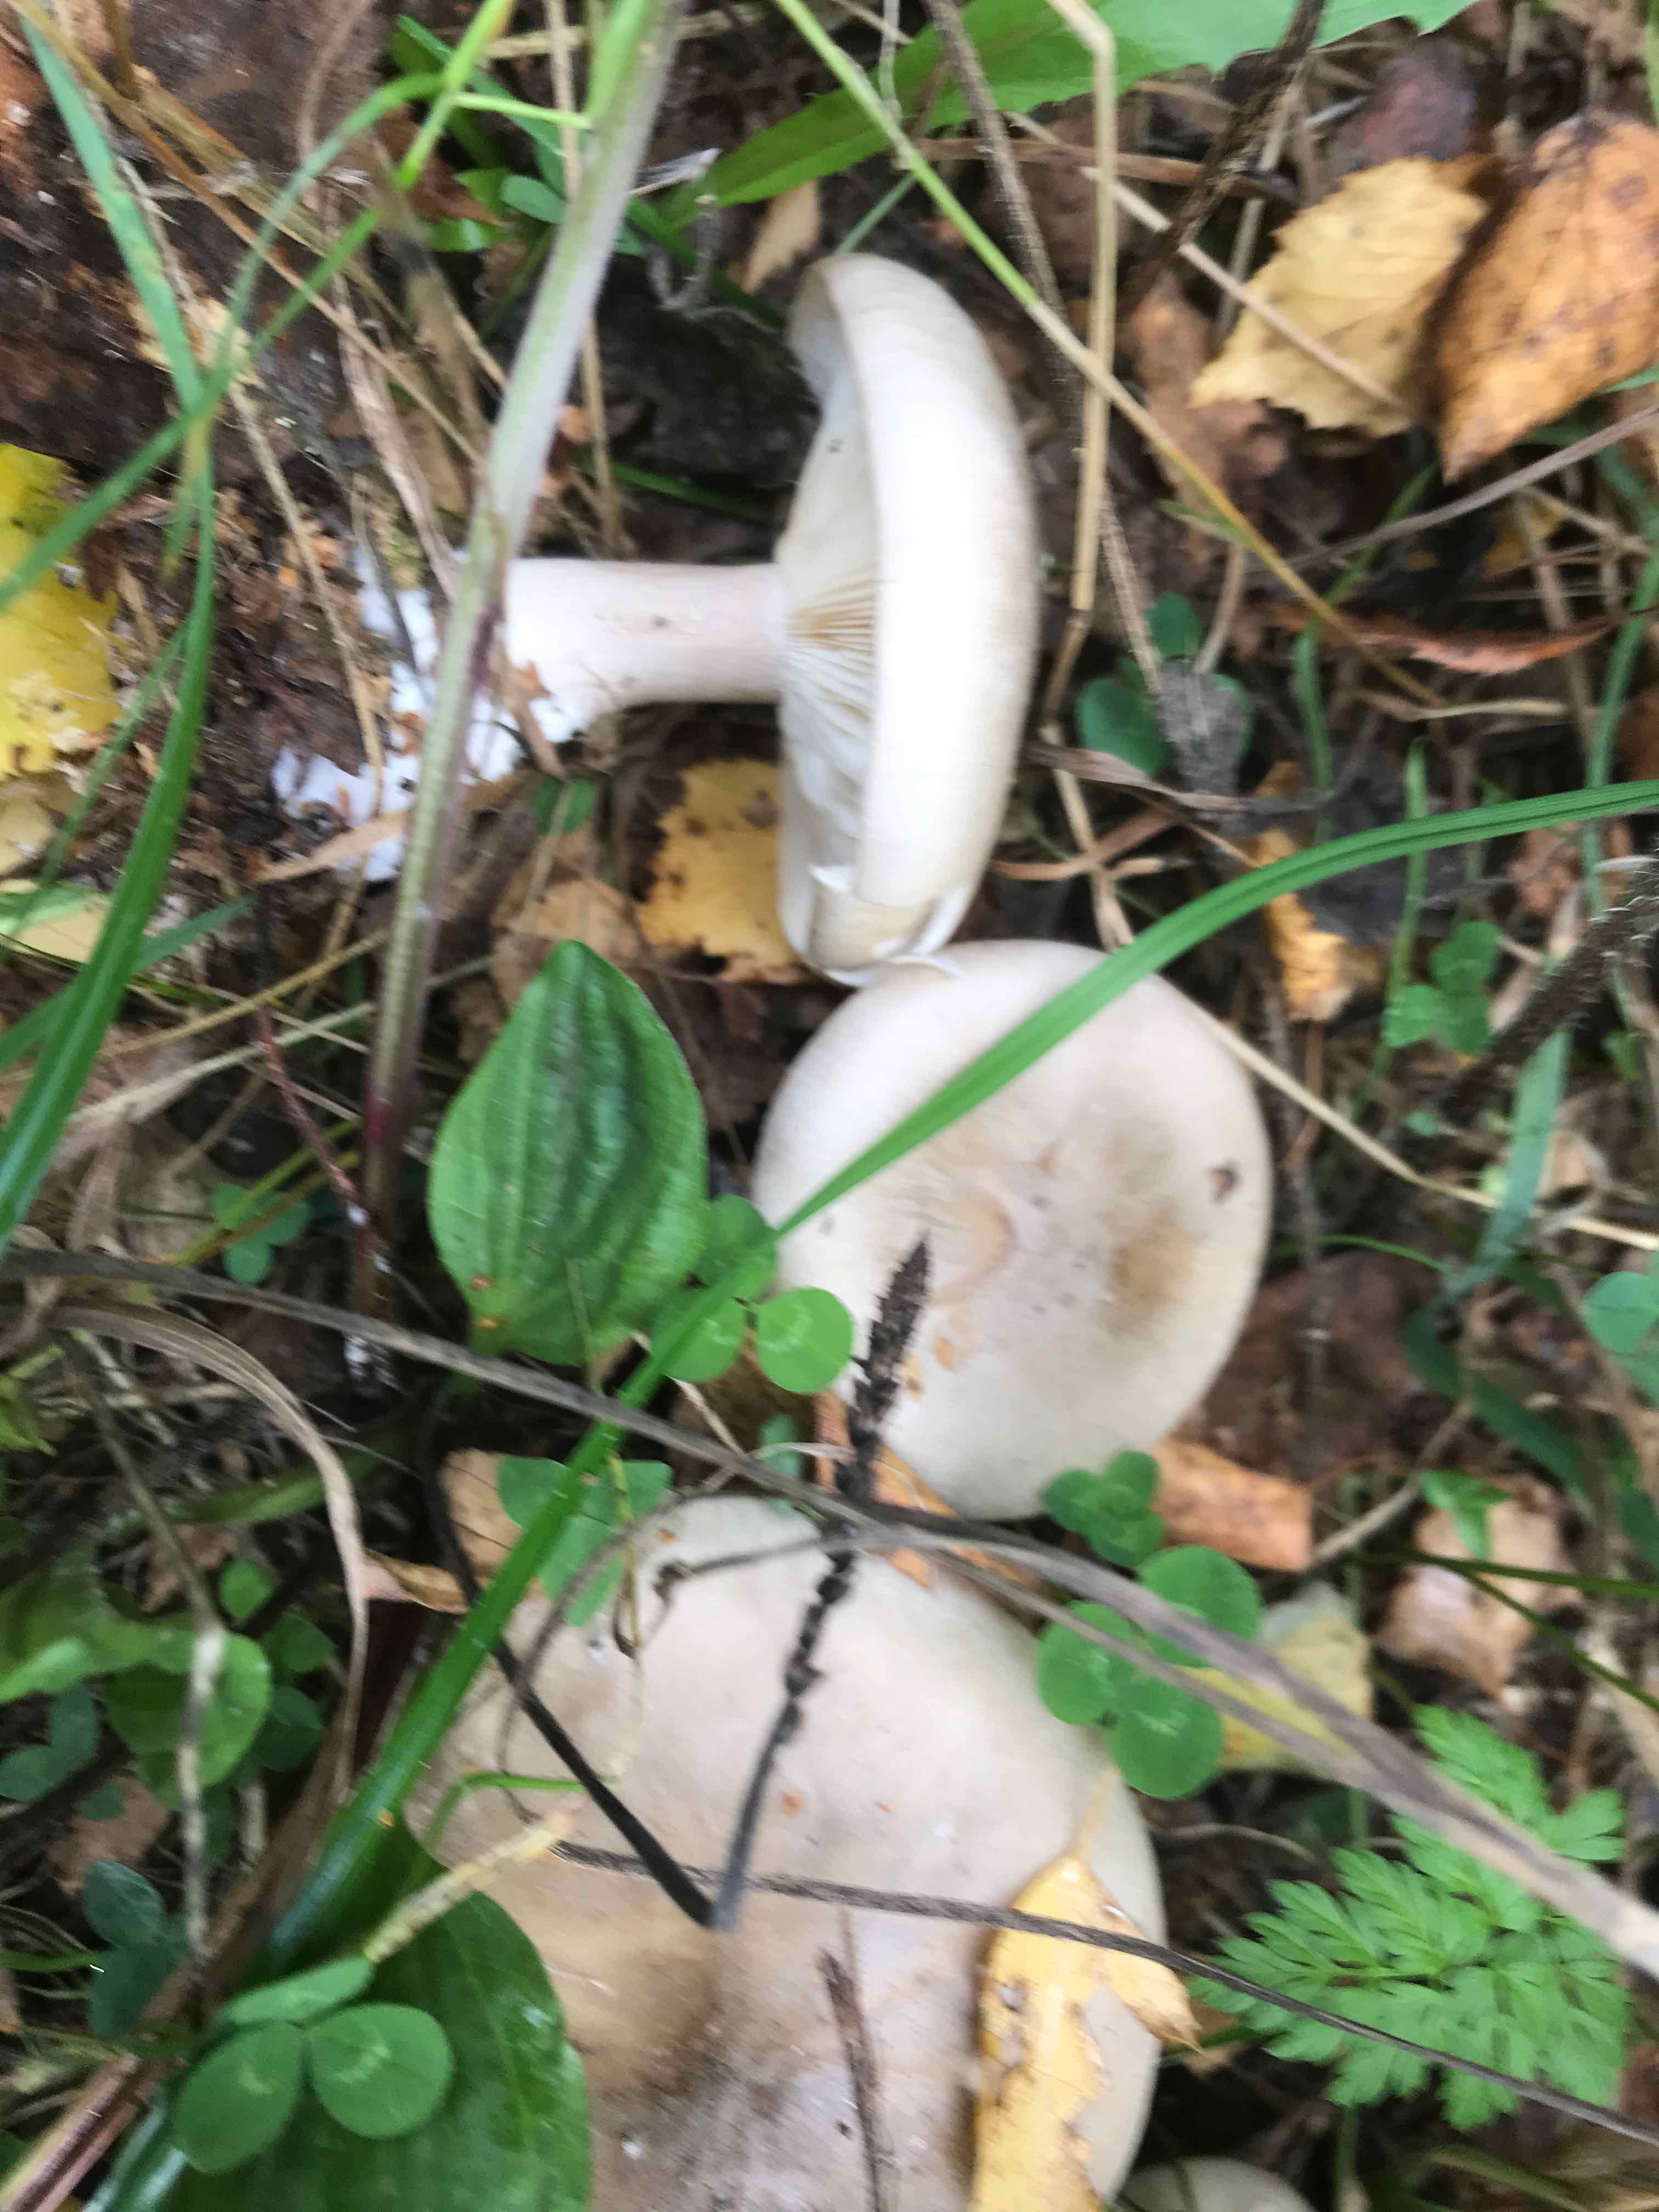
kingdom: Fungi
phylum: Basidiomycota
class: Agaricomycetes
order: Agaricales
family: Tricholomataceae
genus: Clitocybe
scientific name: Clitocybe nebularis
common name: tåge-tragthat
